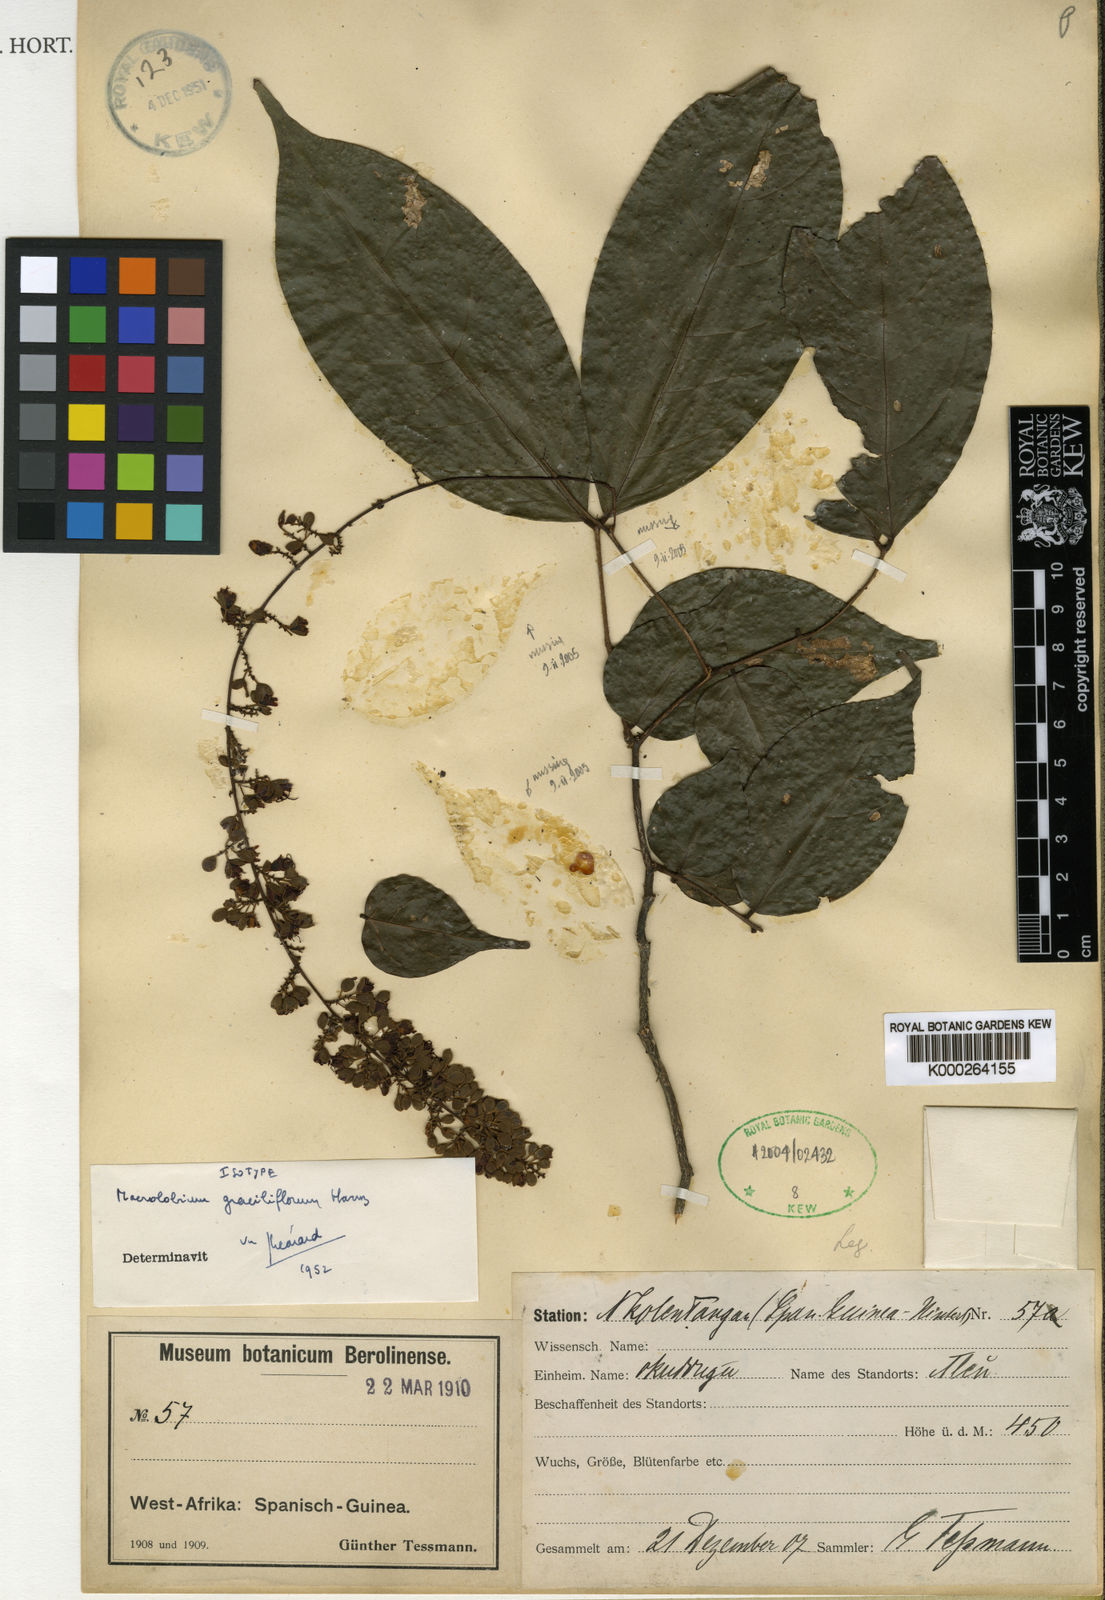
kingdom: Plantae
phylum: Tracheophyta
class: Magnoliopsida
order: Fabales
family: Fabaceae
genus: Englerodendron
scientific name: Englerodendron graciliflorum
